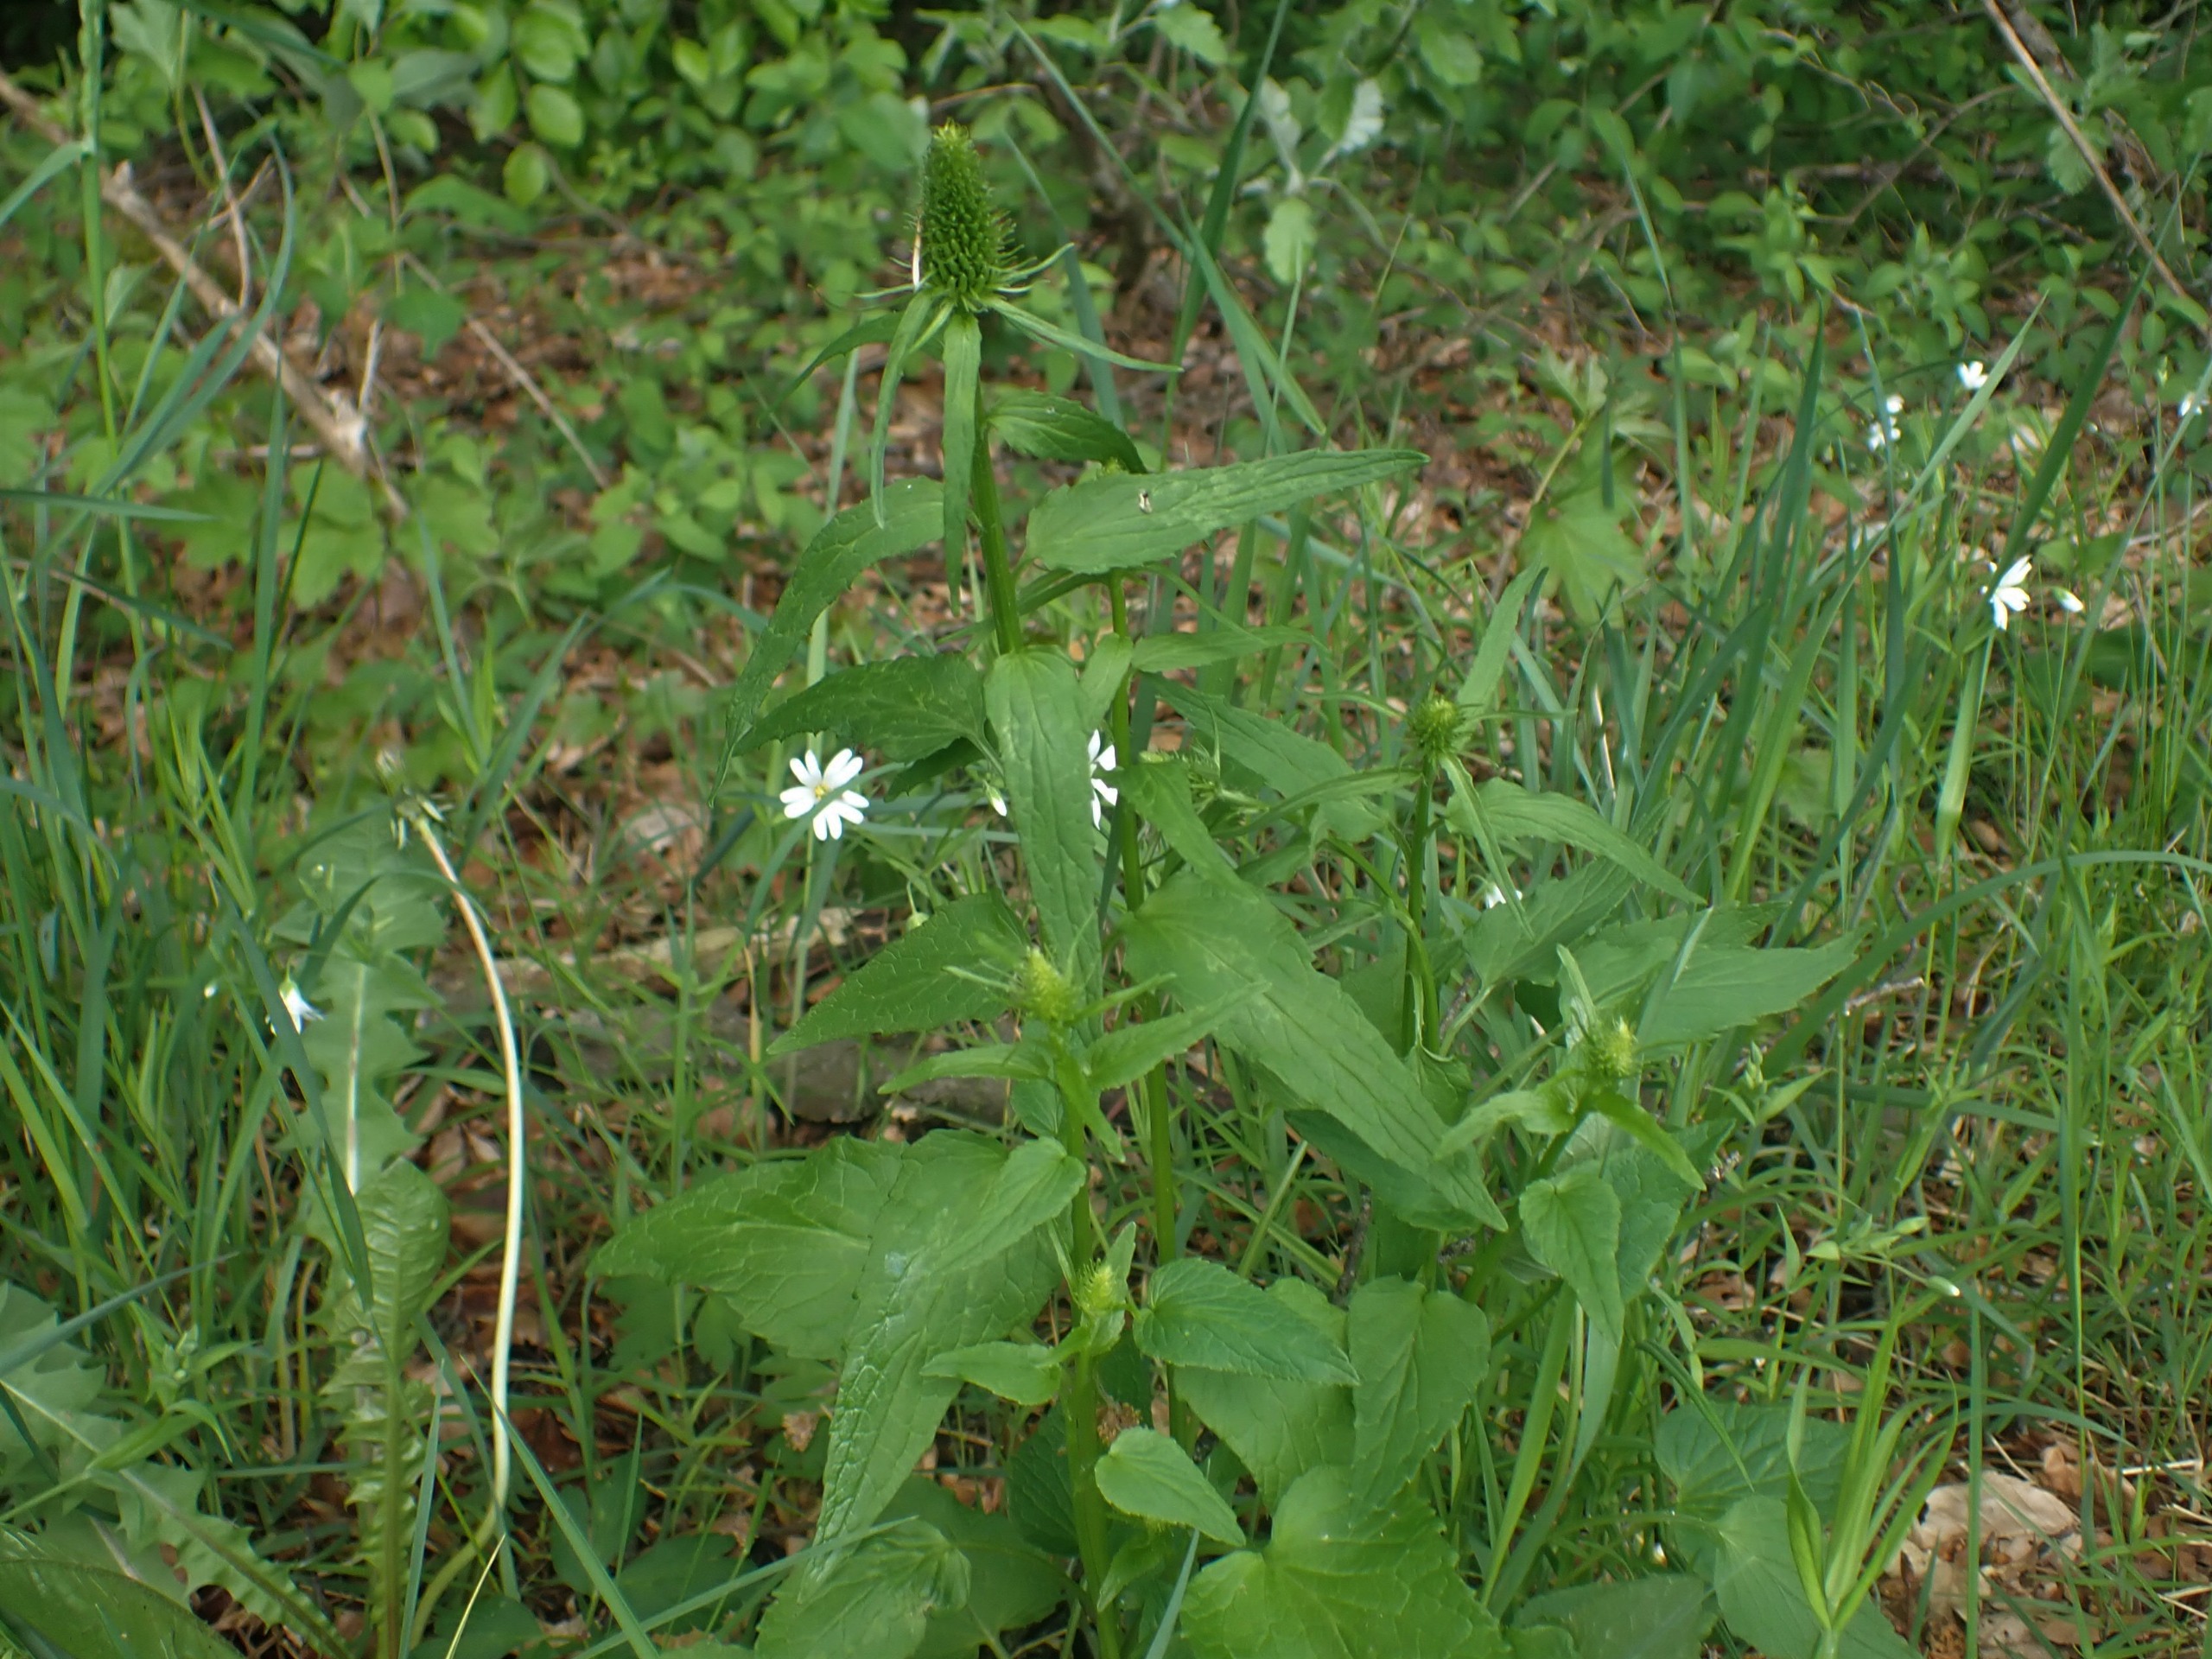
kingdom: Plantae
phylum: Tracheophyta
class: Magnoliopsida
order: Asterales
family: Campanulaceae
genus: Phyteuma
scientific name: Phyteuma spicatum
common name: Aks-rapunsel
